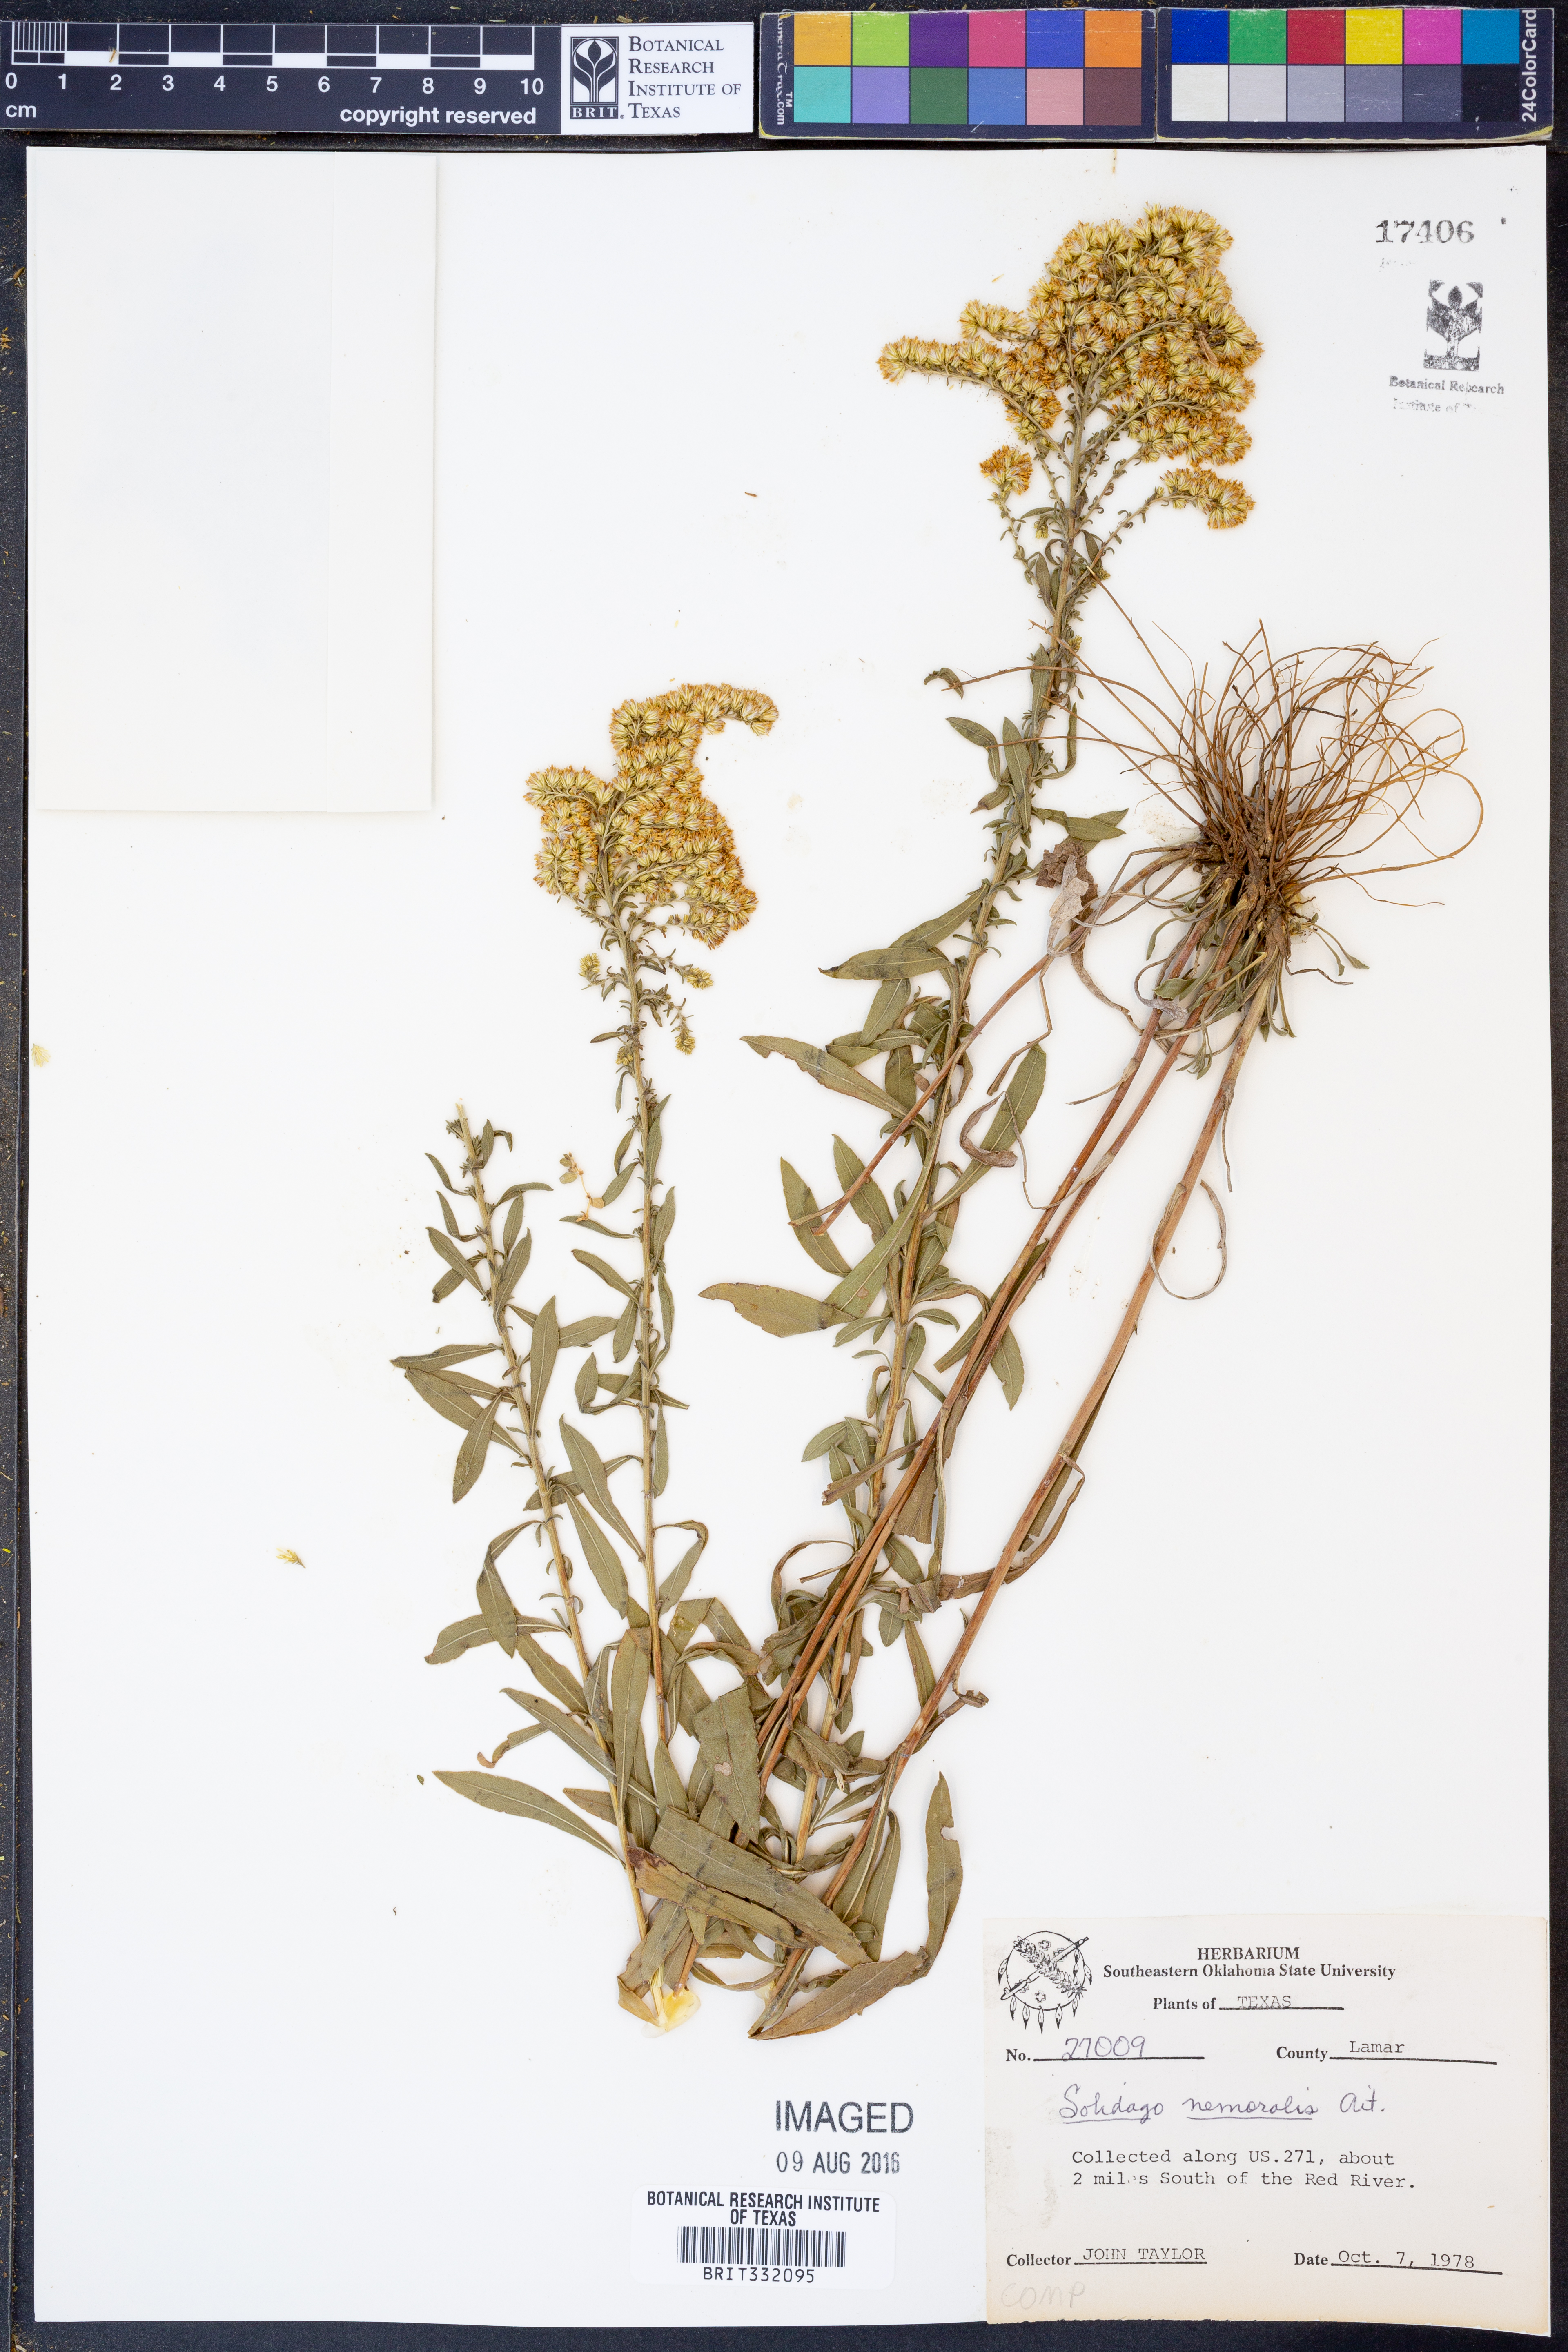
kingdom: Plantae
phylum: Tracheophyta
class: Magnoliopsida
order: Asterales
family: Asteraceae
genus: Solidago
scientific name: Solidago nemoralis
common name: Grey goldenrod
